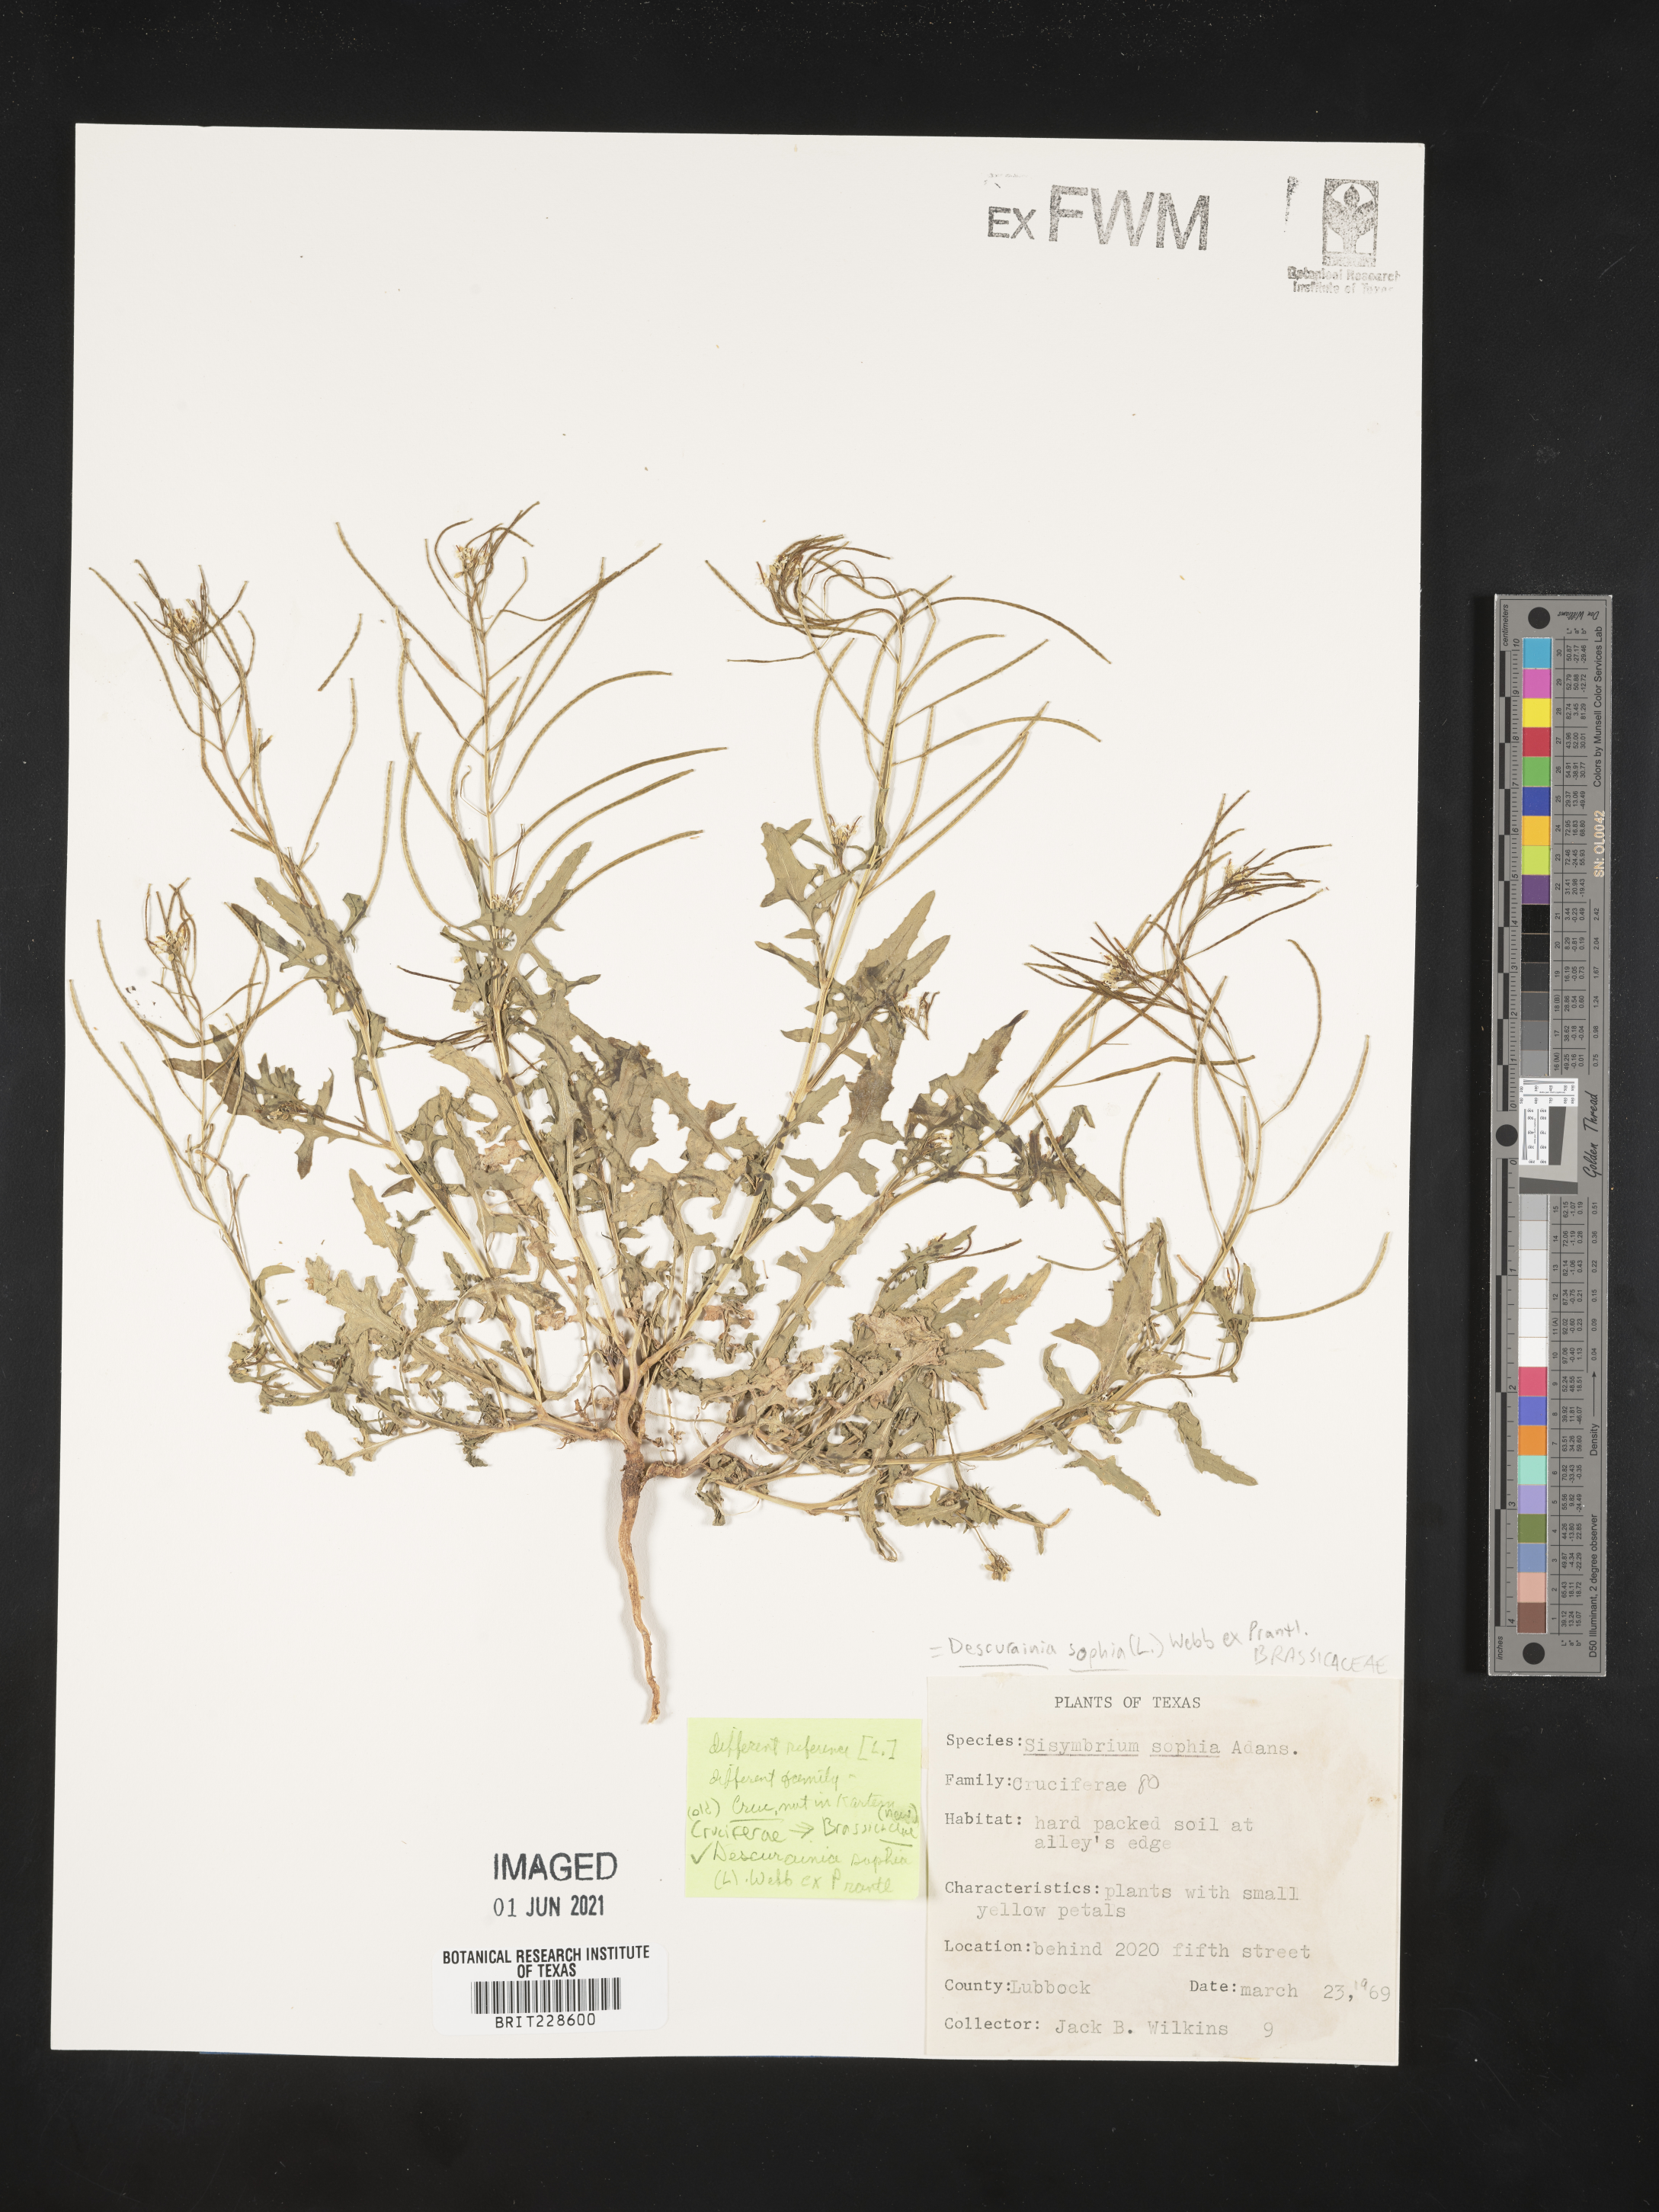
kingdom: Plantae
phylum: Tracheophyta
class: Magnoliopsida
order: Brassicales
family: Brassicaceae
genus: Descurainia
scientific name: Descurainia sophia
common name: Flixweed
